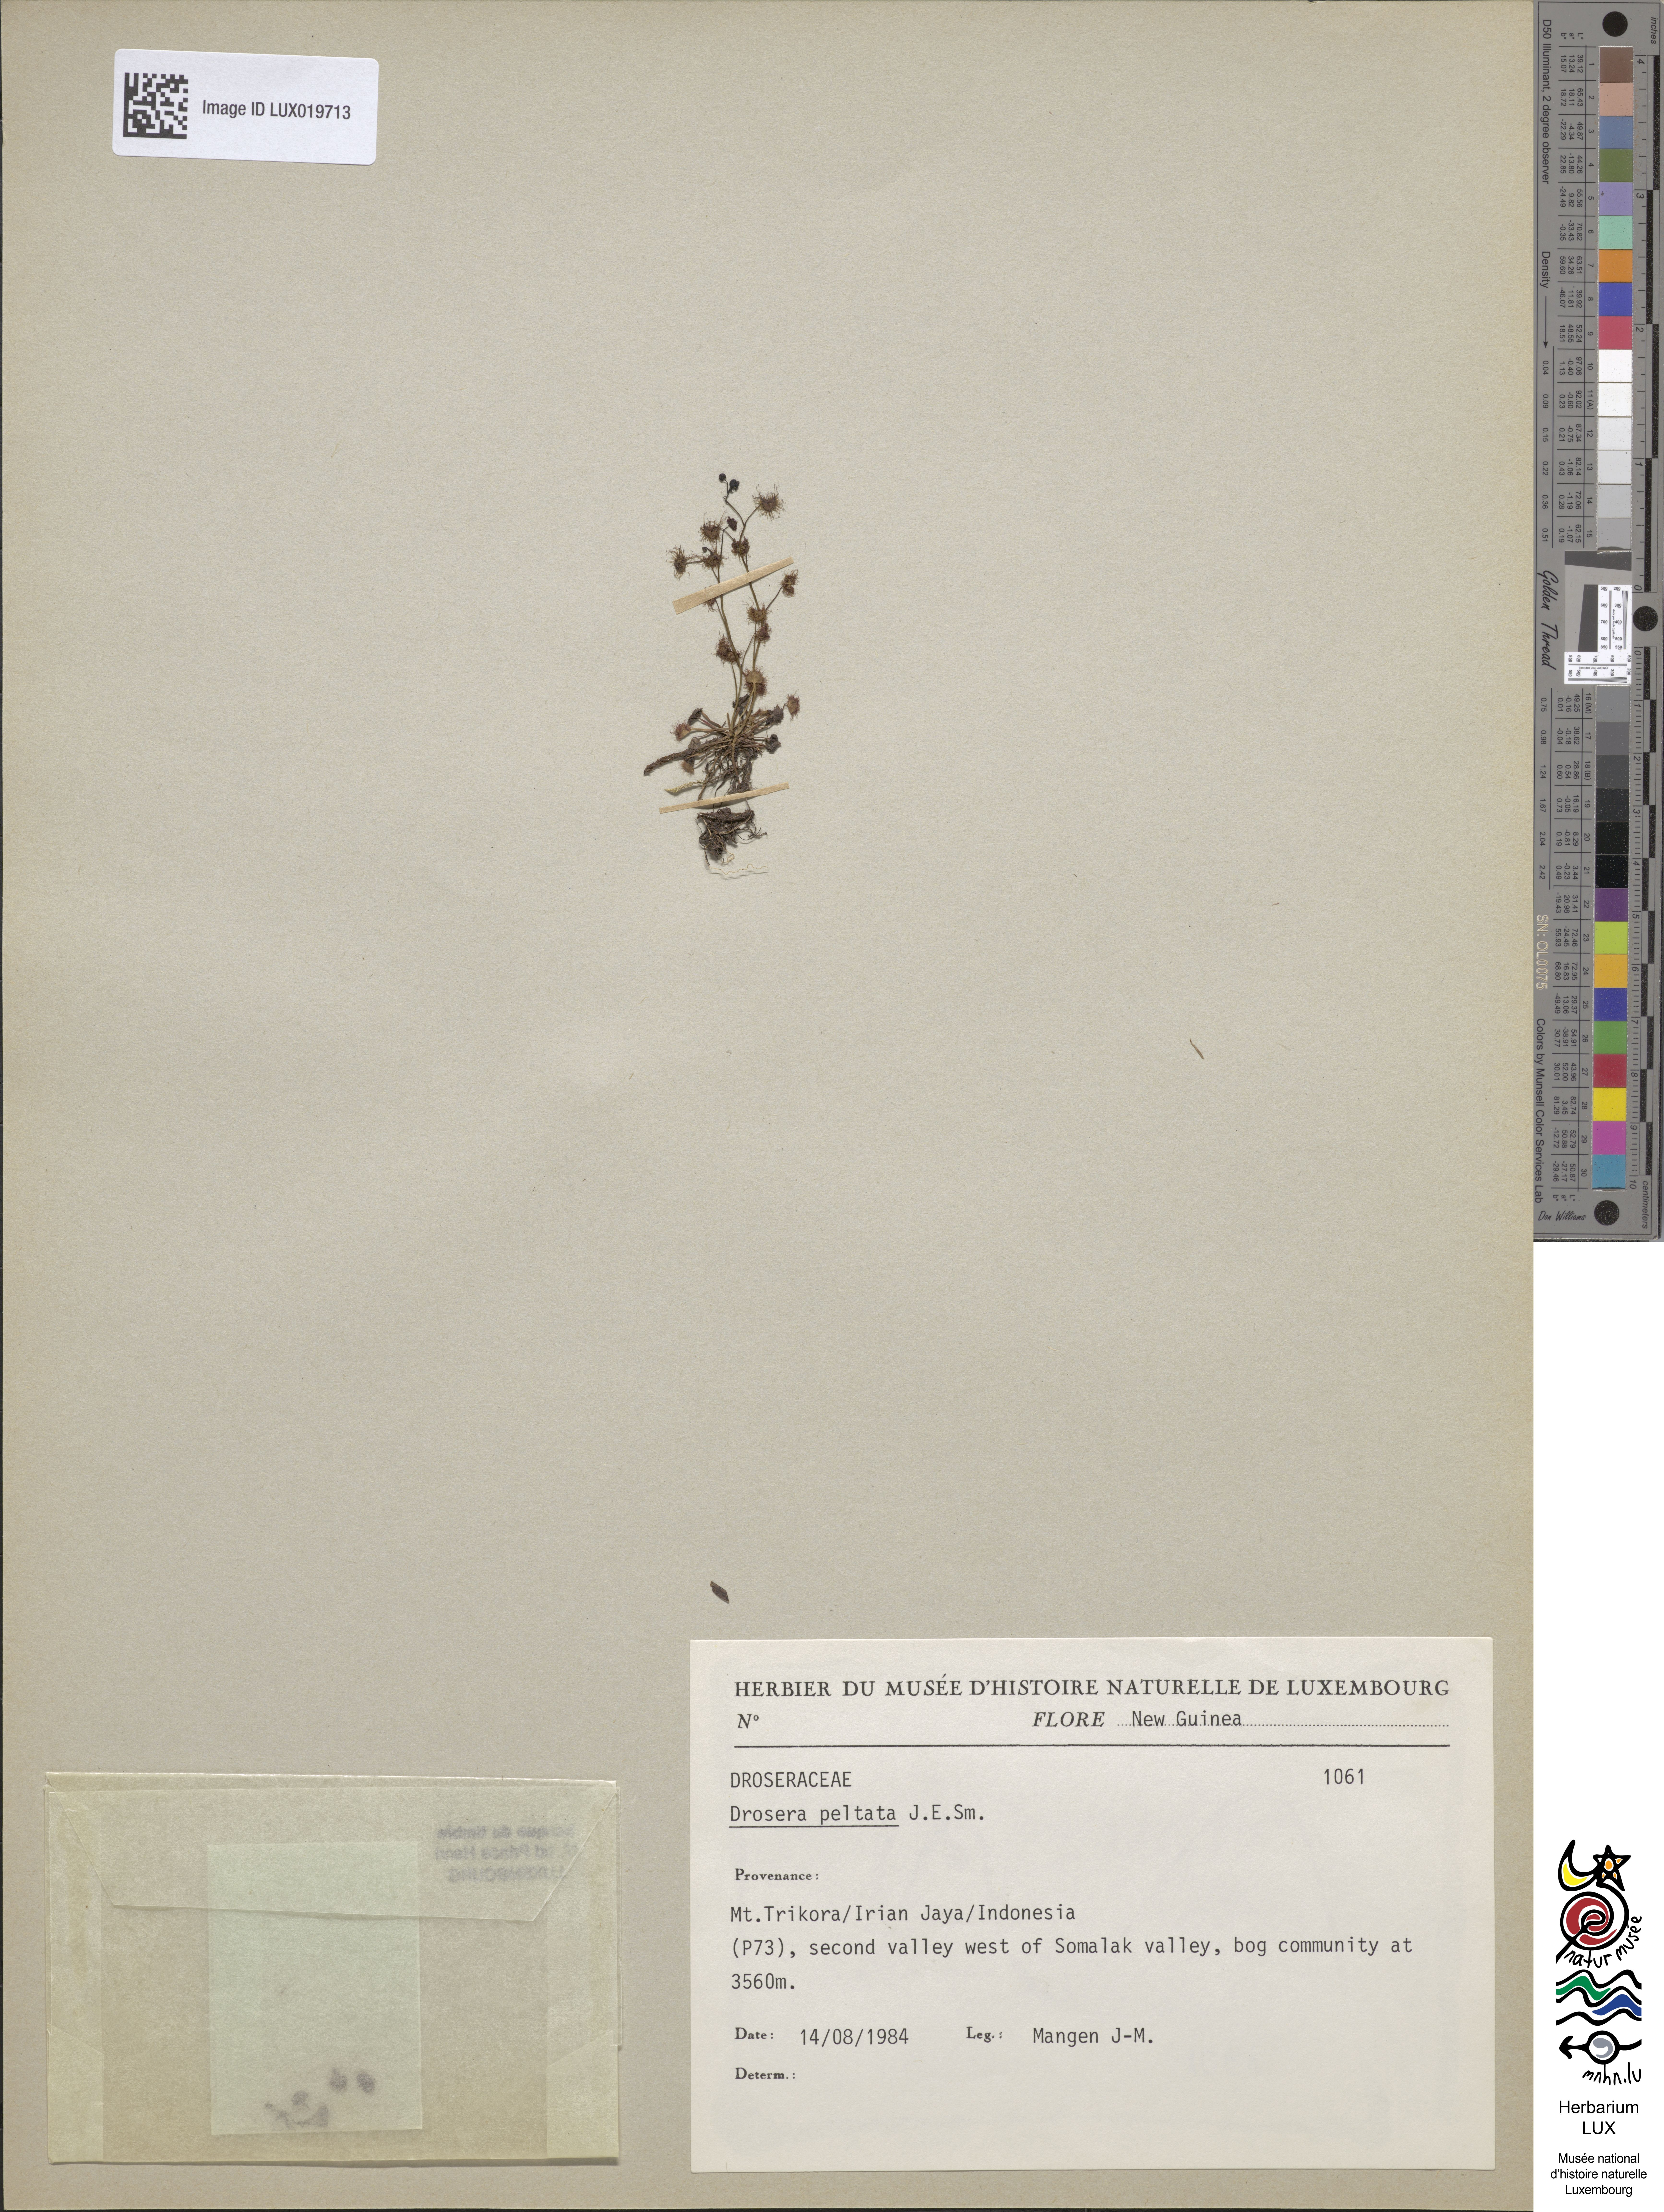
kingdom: Plantae
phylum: Tracheophyta
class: Magnoliopsida
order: Caryophyllales
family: Droseraceae
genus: Drosera
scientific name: Drosera peltata
